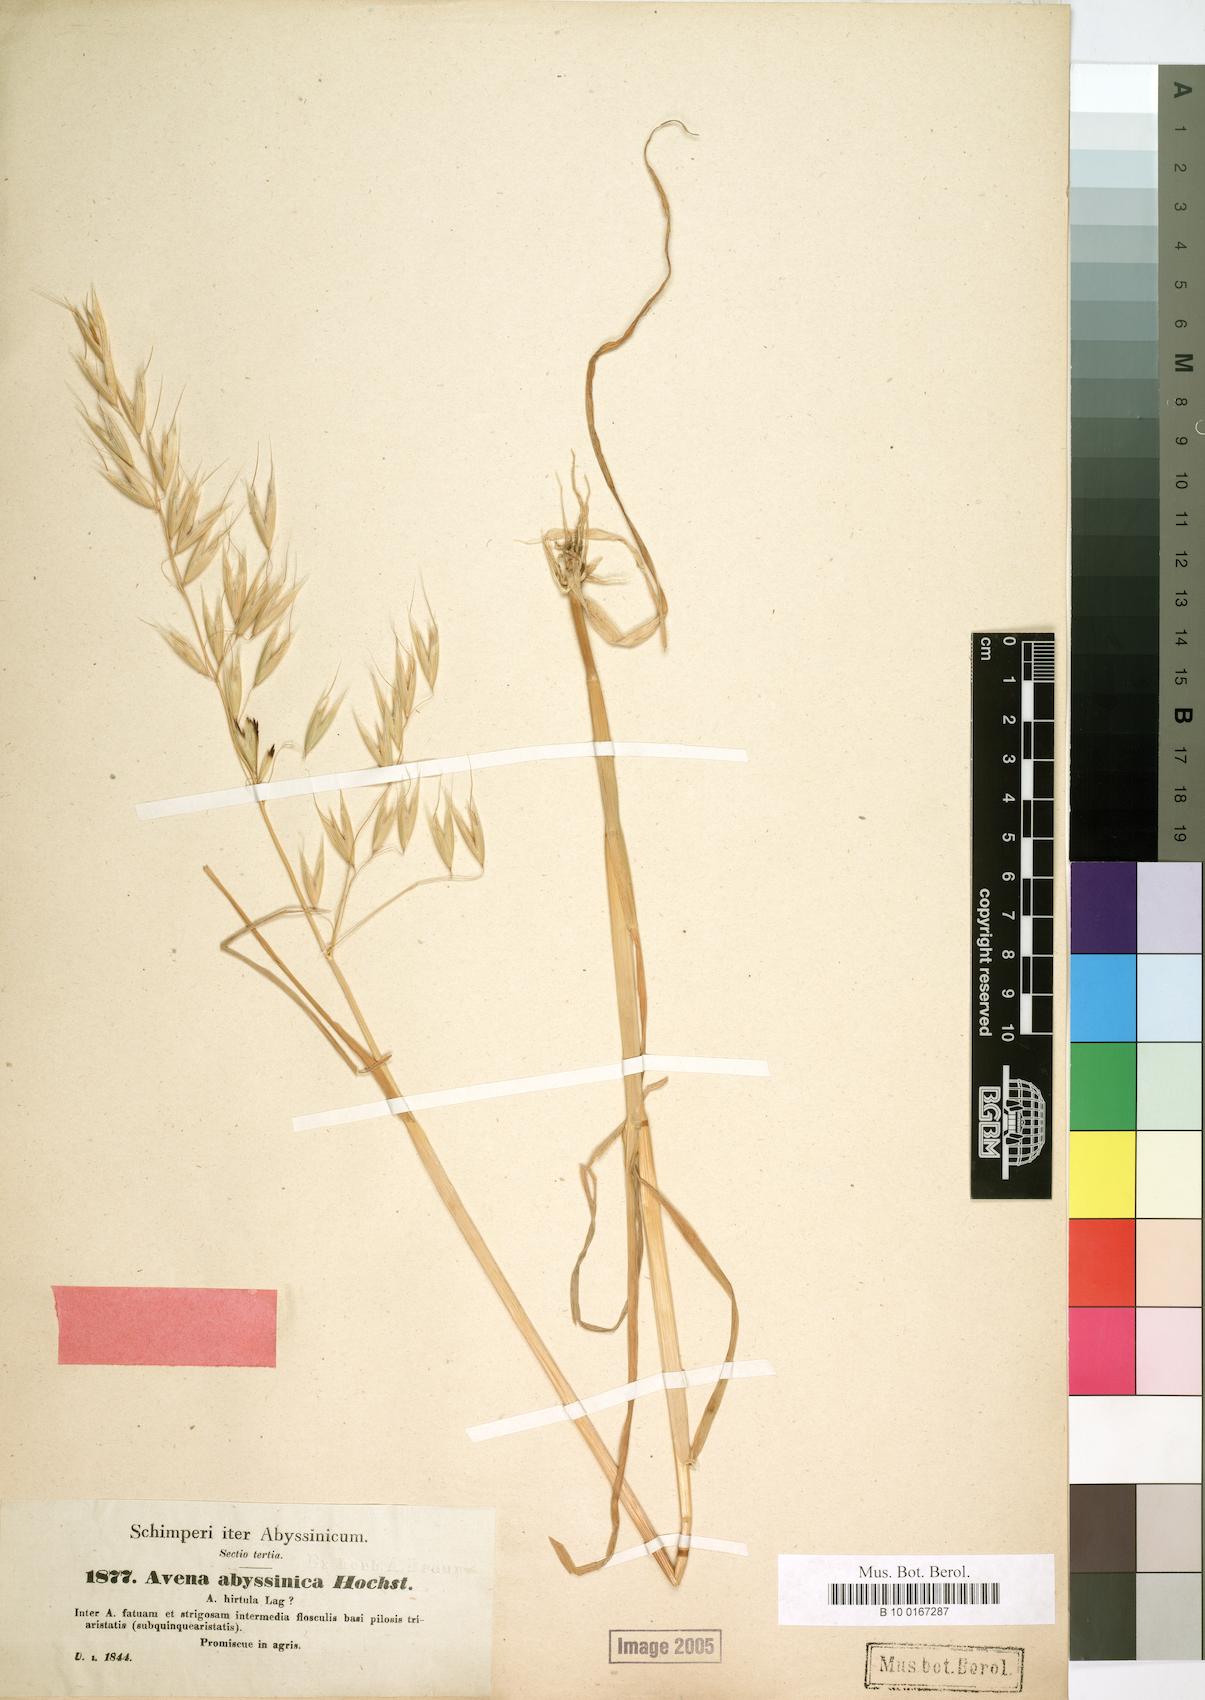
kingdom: Plantae
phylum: Tracheophyta
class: Liliopsida
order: Poales
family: Poaceae
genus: Avena
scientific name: Avena abyssinica
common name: Ethiopian oat
